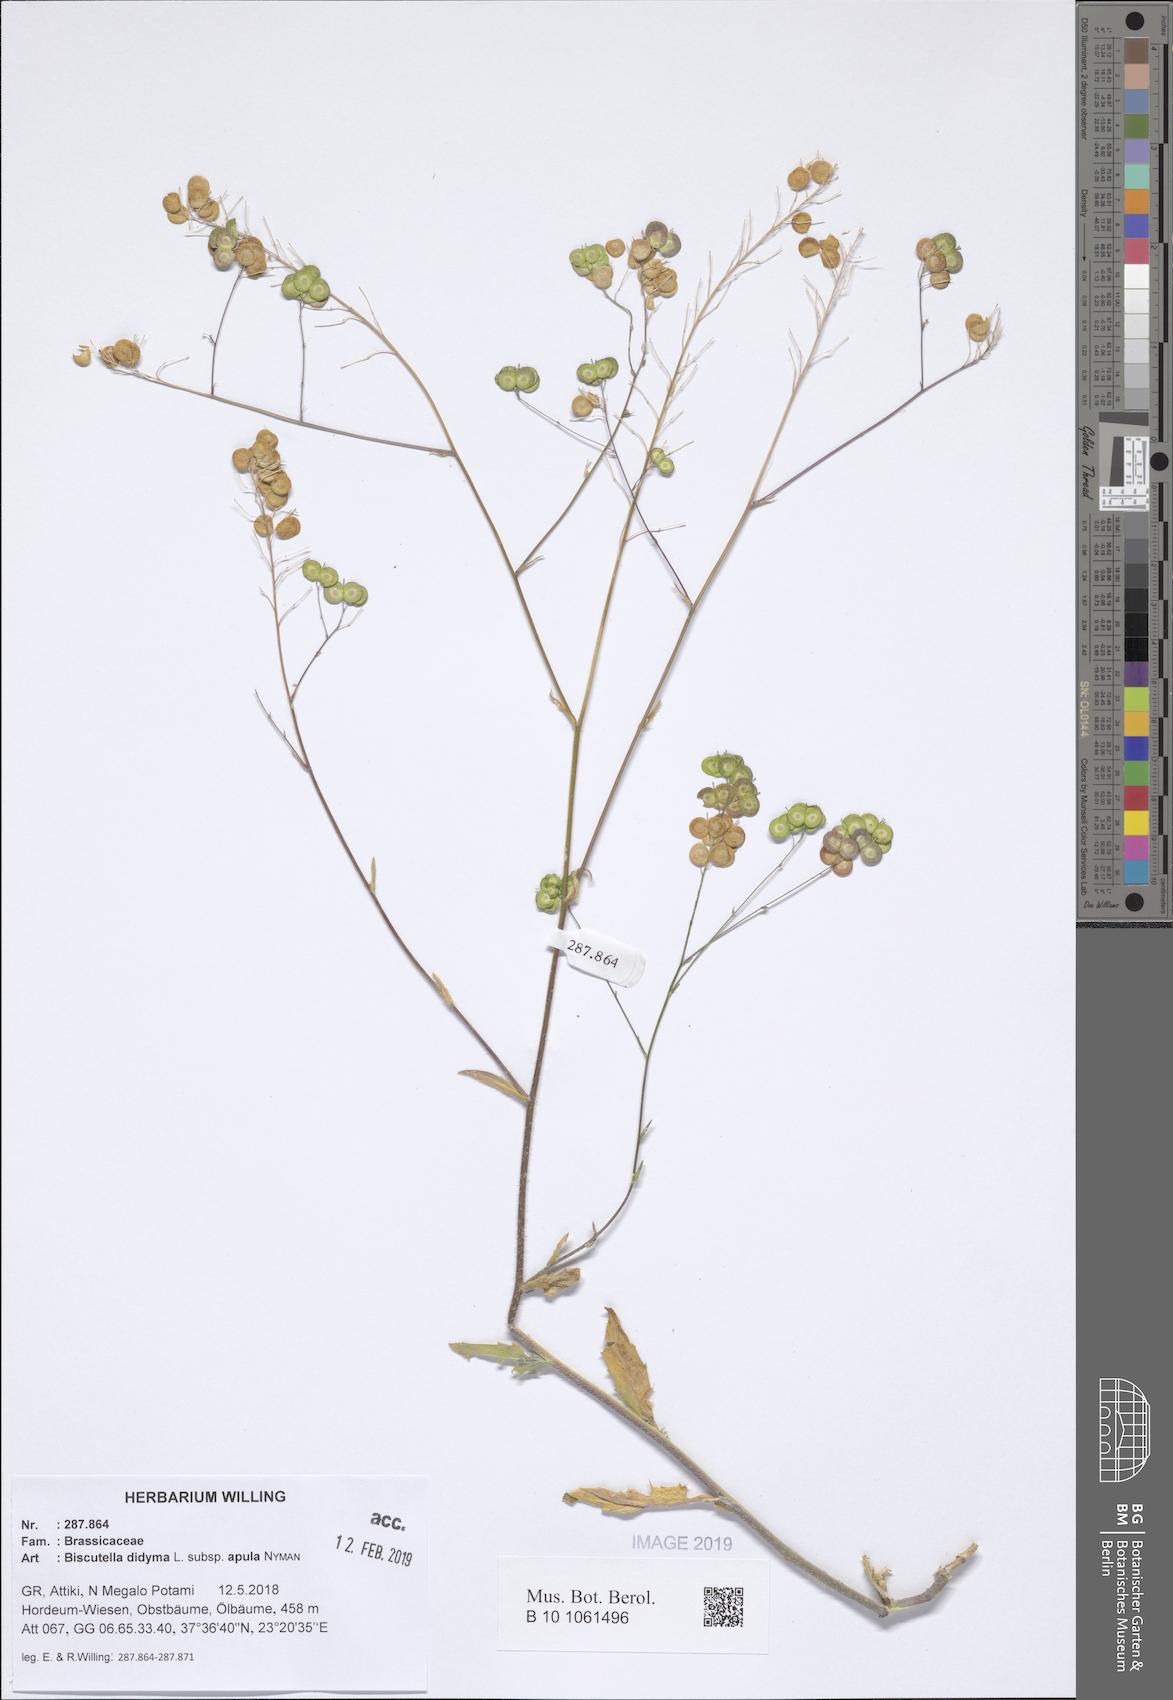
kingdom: Plantae
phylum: Tracheophyta
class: Magnoliopsida
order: Brassicales
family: Brassicaceae
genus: Biscutella
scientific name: Biscutella didyma
